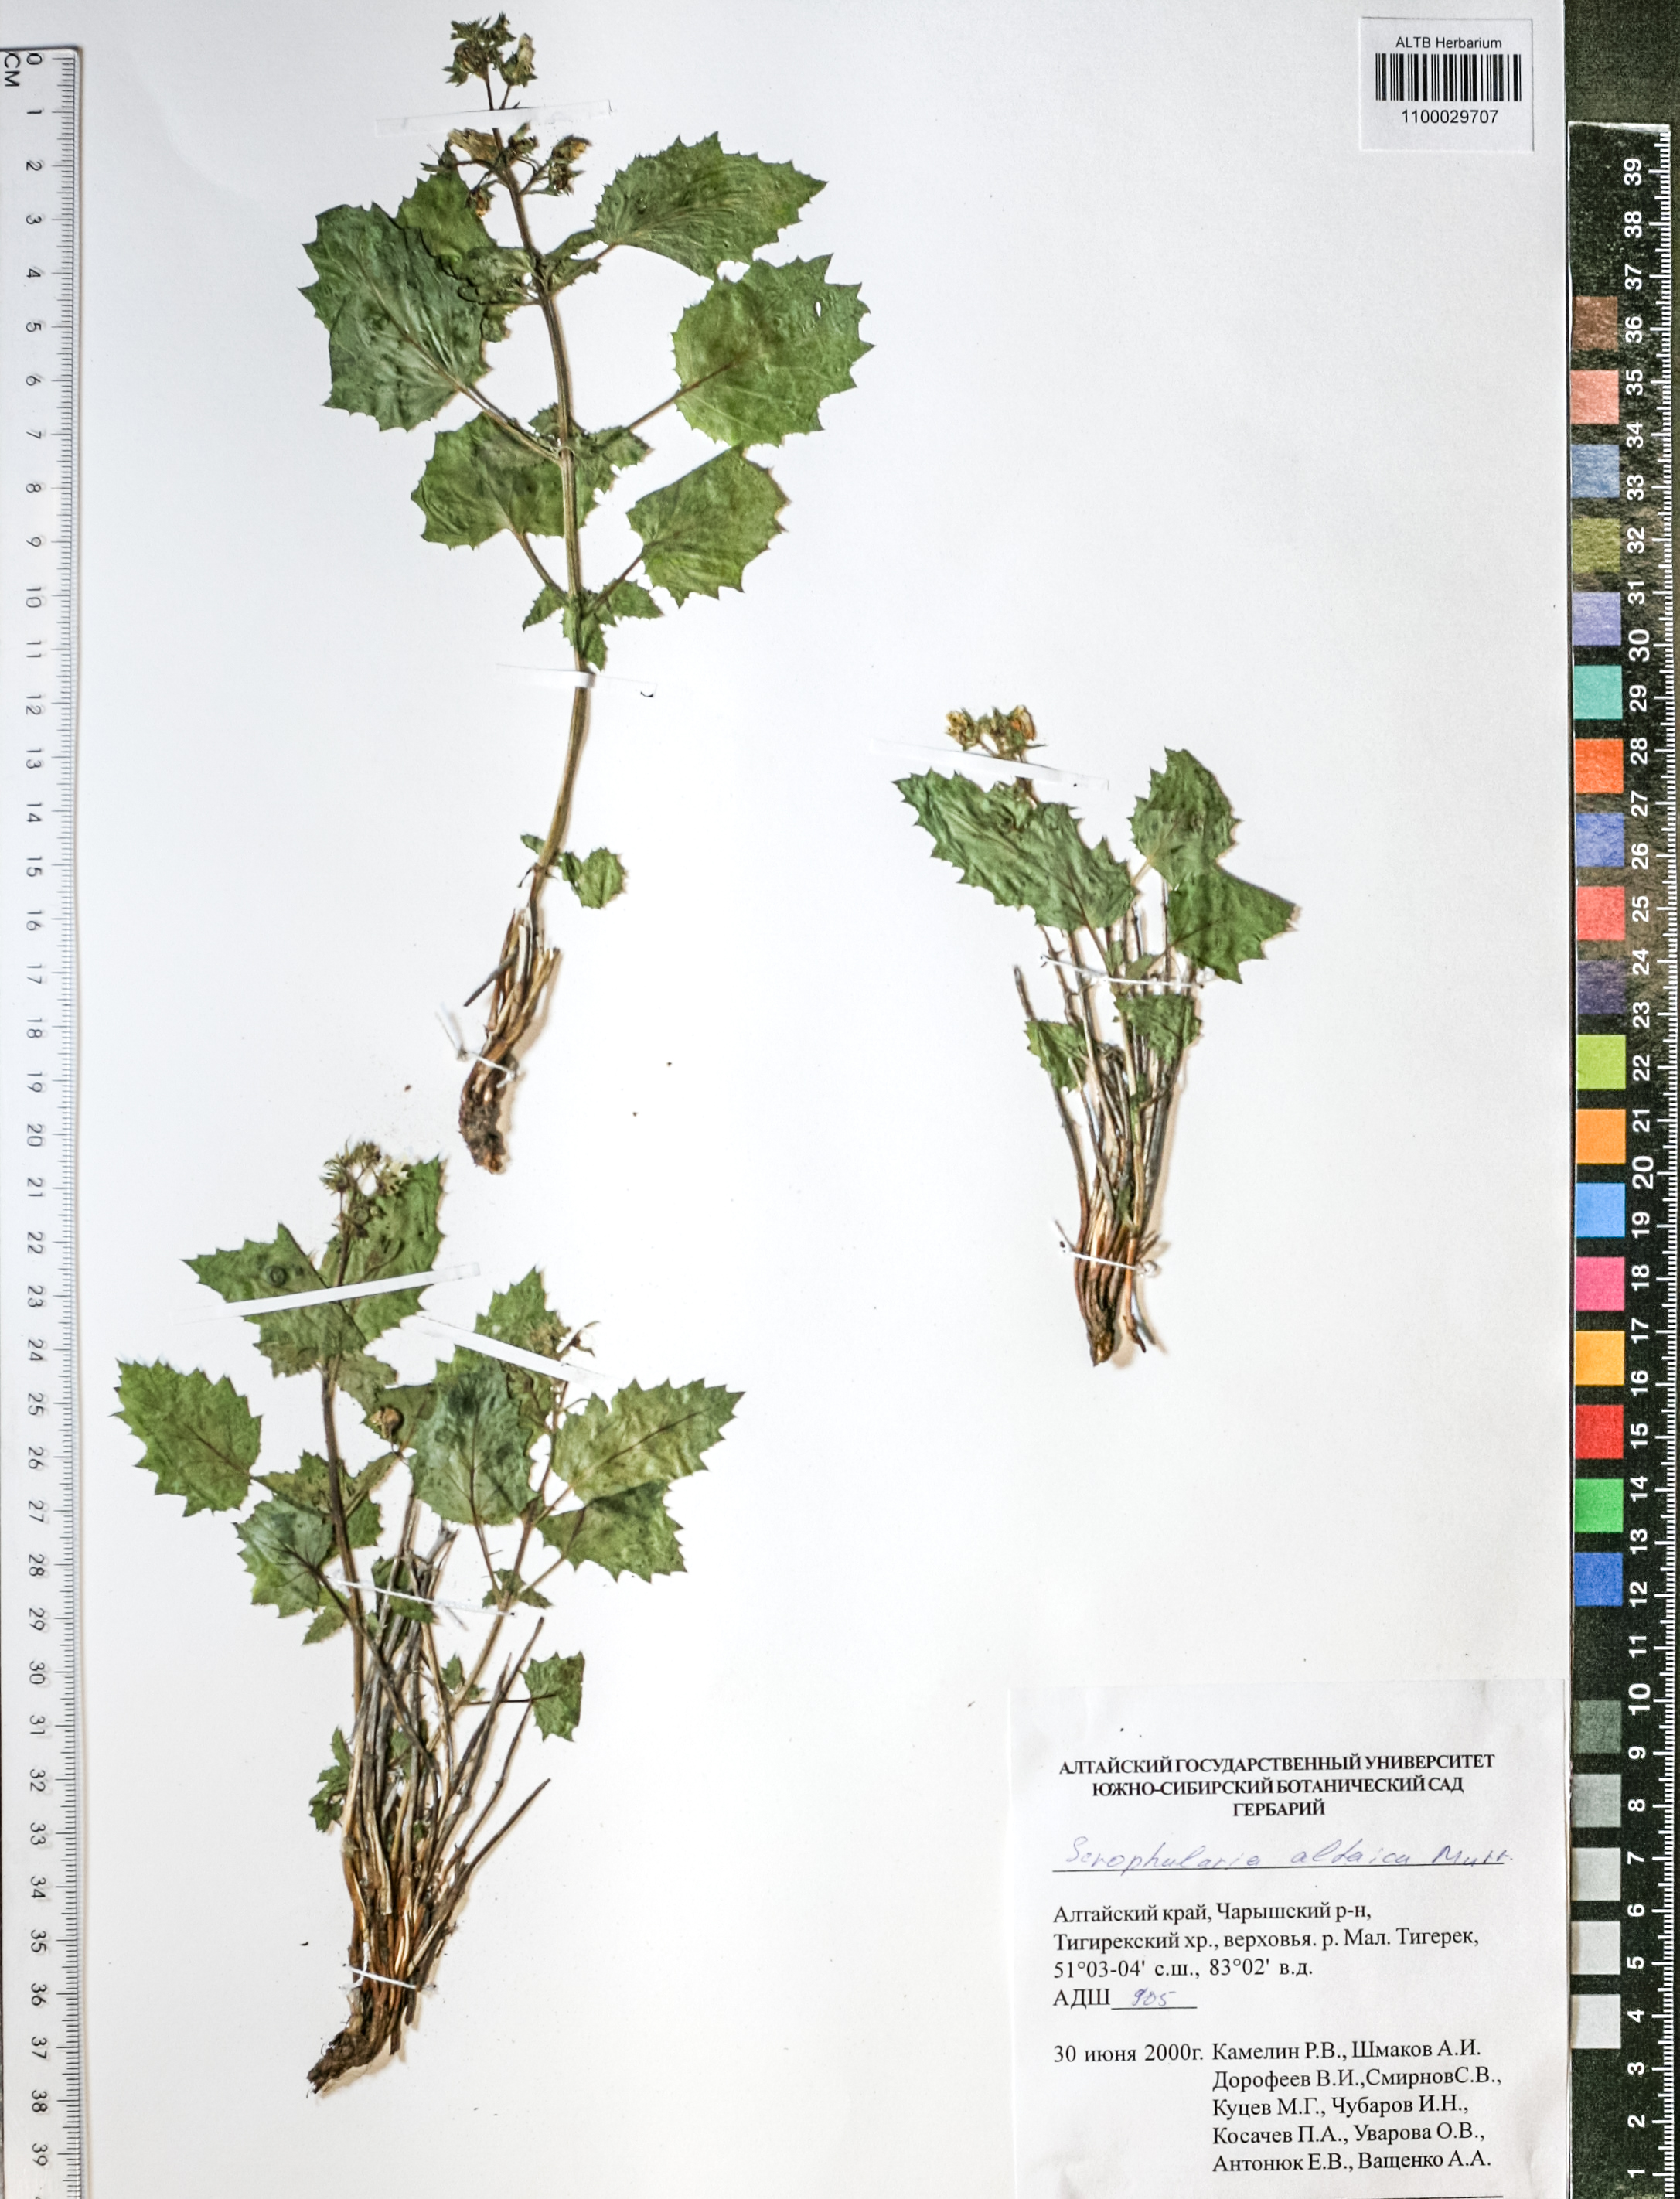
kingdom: Plantae
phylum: Tracheophyta
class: Magnoliopsida
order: Lamiales
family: Scrophulariaceae
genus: Scrophularia
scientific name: Scrophularia altaica
